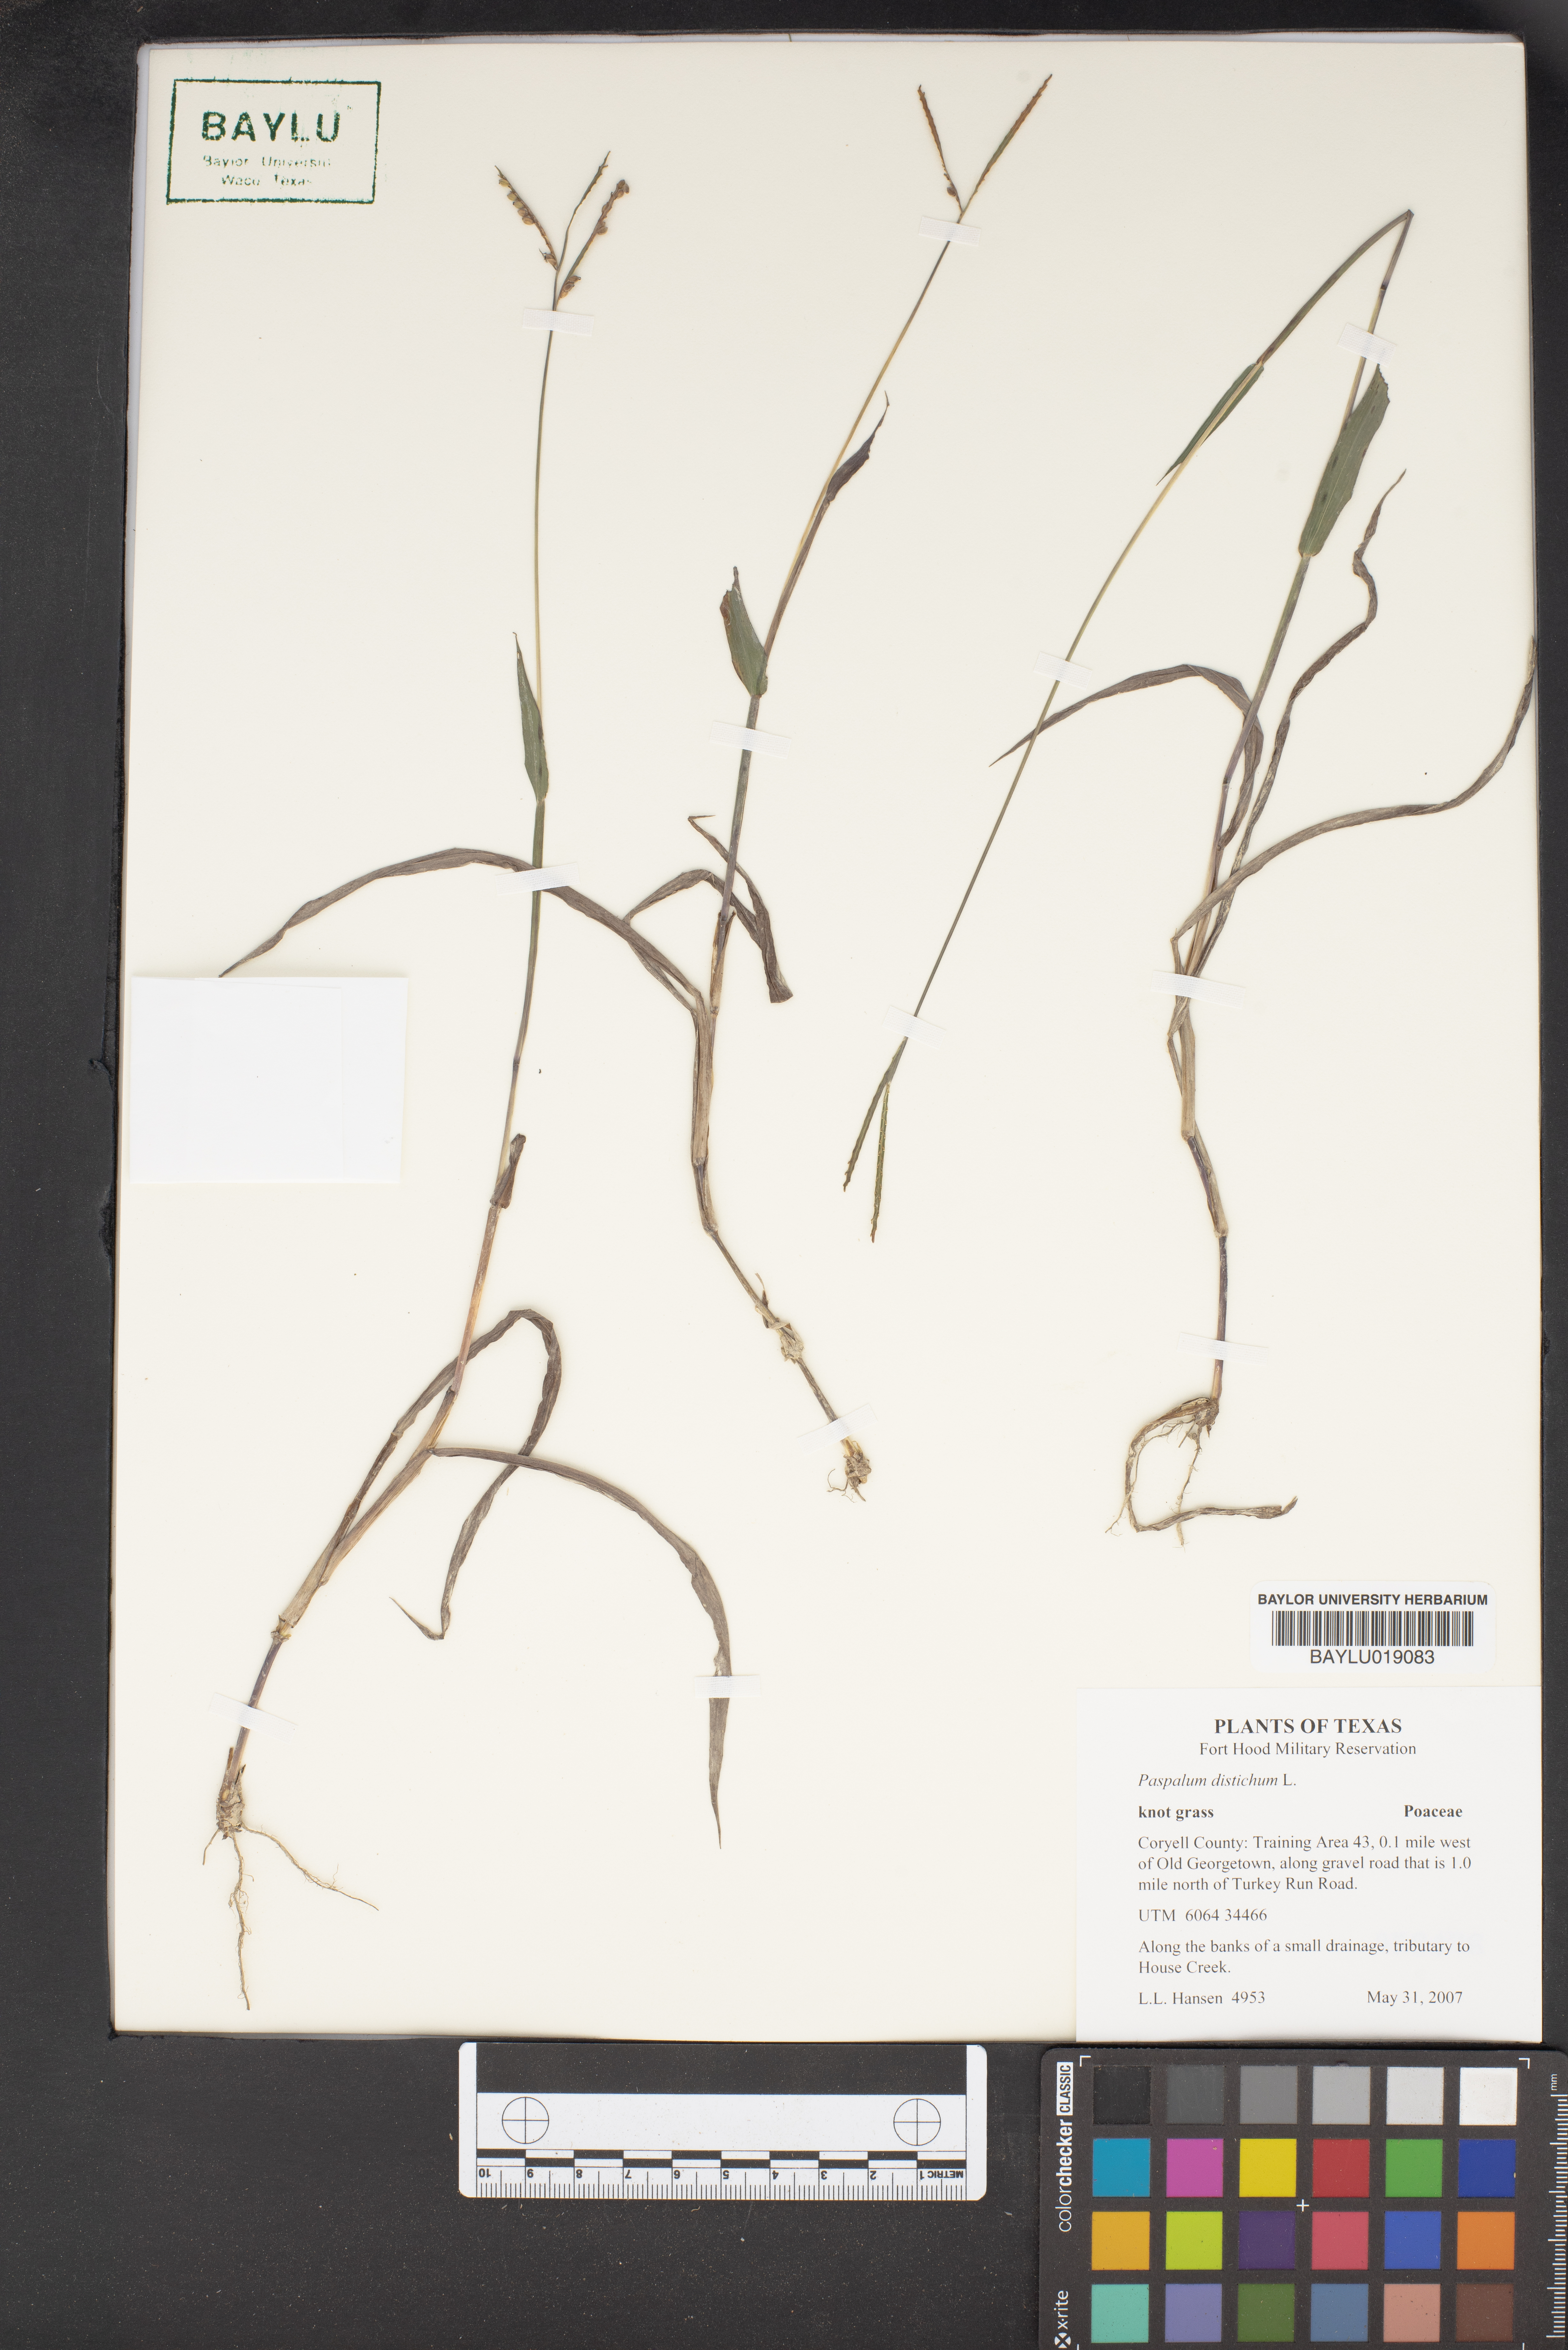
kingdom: Plantae
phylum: Tracheophyta
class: Liliopsida
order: Poales
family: Poaceae
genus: Paspalum
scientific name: Paspalum distichum
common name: Knotgrass
